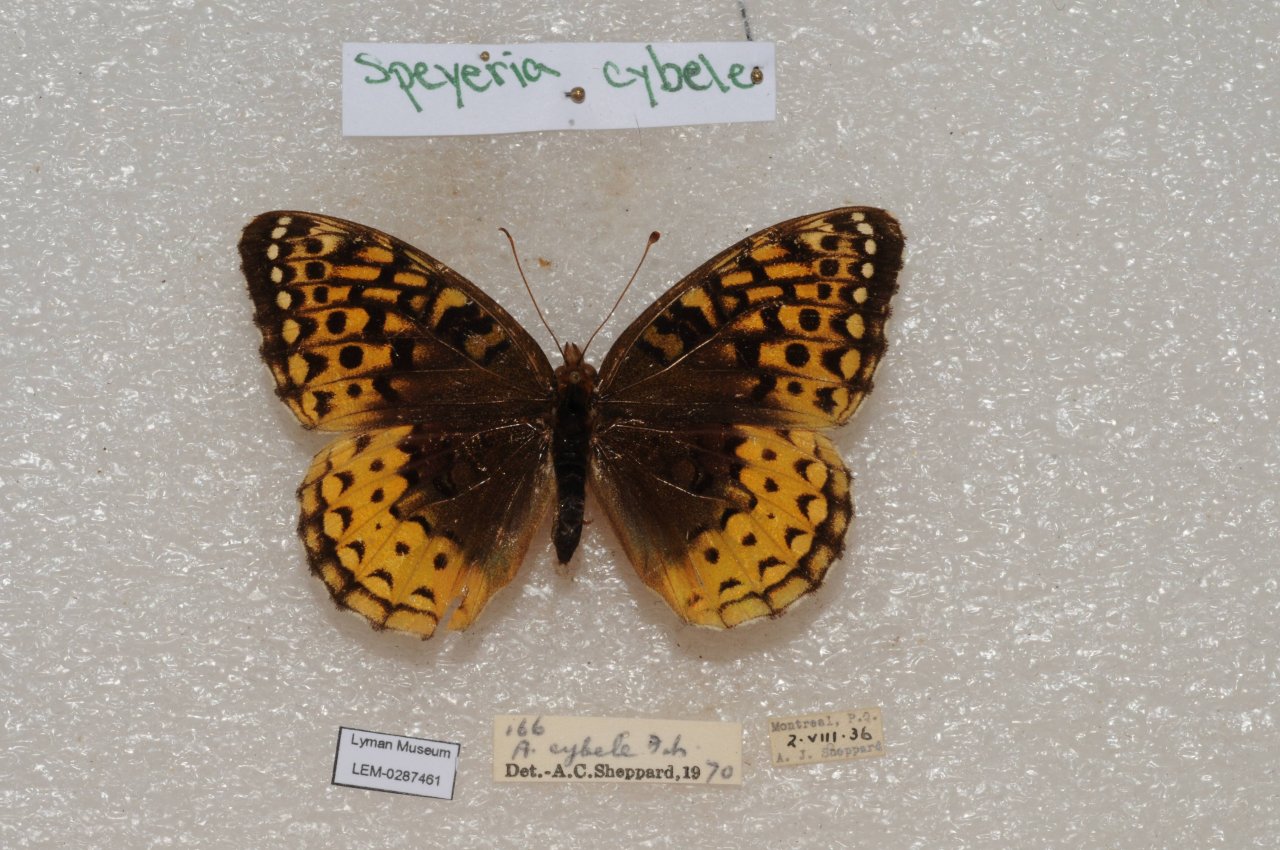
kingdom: Animalia
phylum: Arthropoda
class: Insecta
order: Lepidoptera
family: Nymphalidae
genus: Speyeria
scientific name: Speyeria cybele
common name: Great Spangled Fritillary
